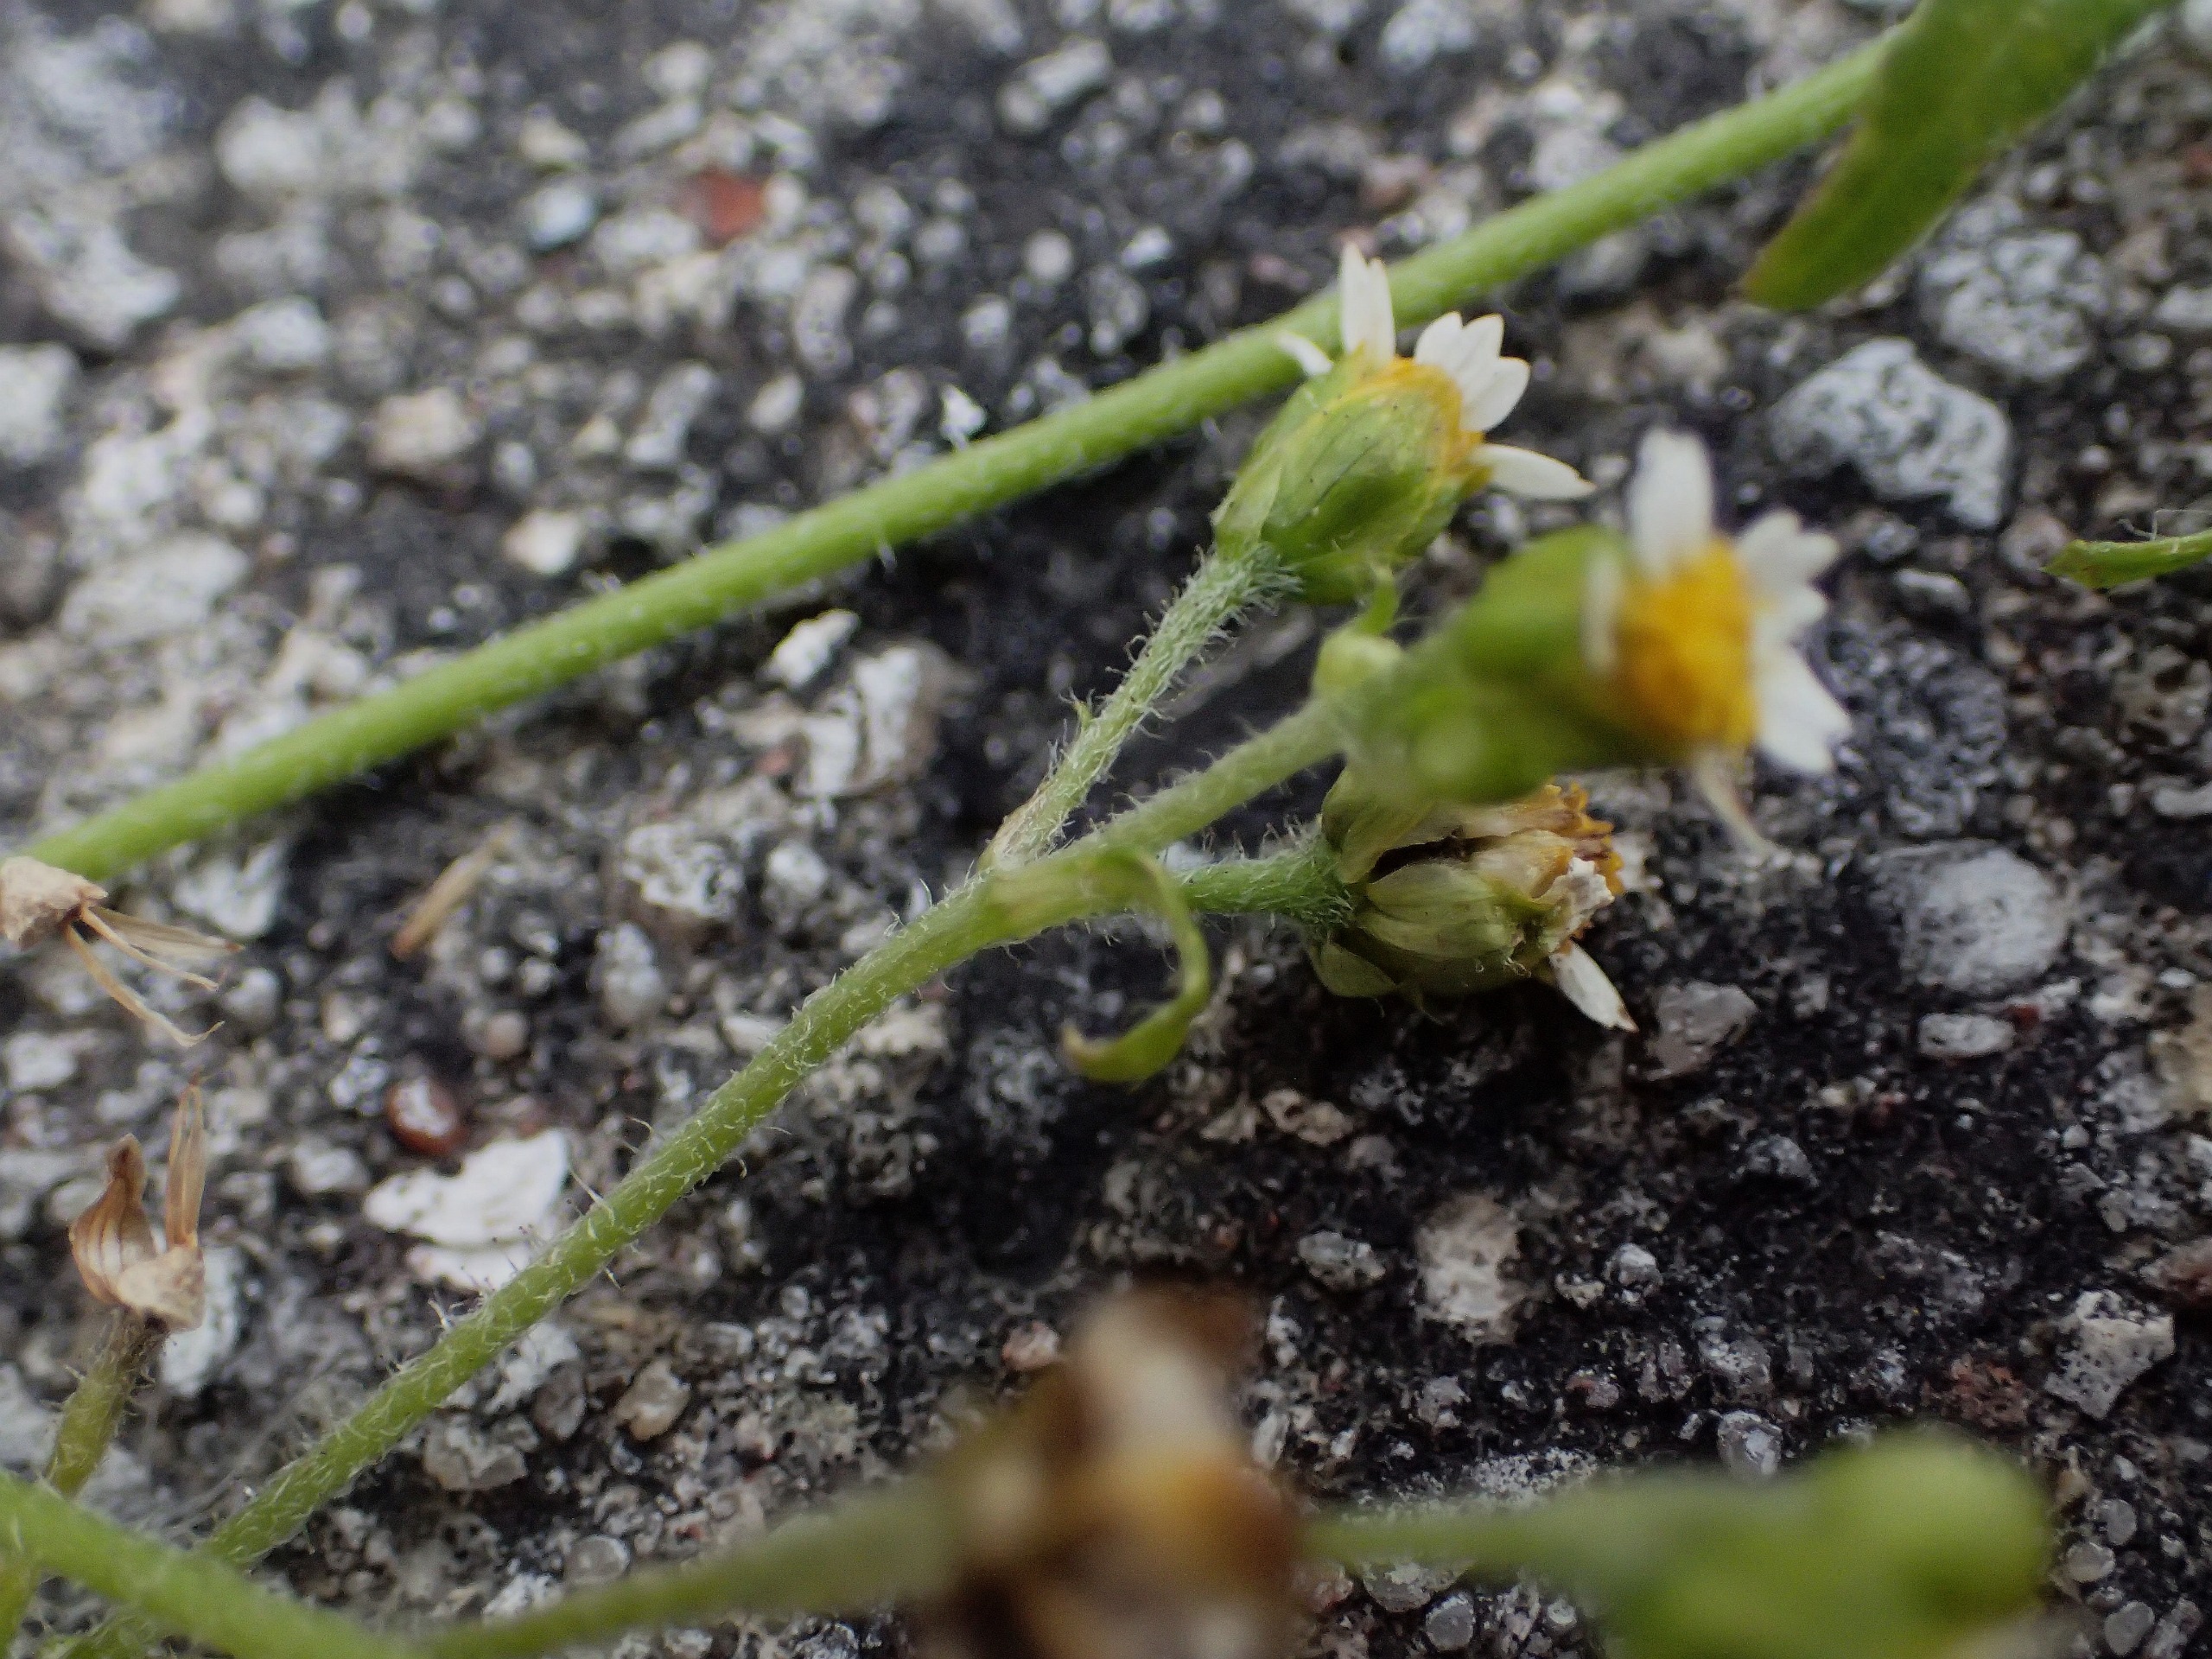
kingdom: Plantae
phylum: Tracheophyta
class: Magnoliopsida
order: Asterales
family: Asteraceae
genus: Galinsoga
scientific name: Galinsoga quadriradiata
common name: Kirtel-kortstråle
